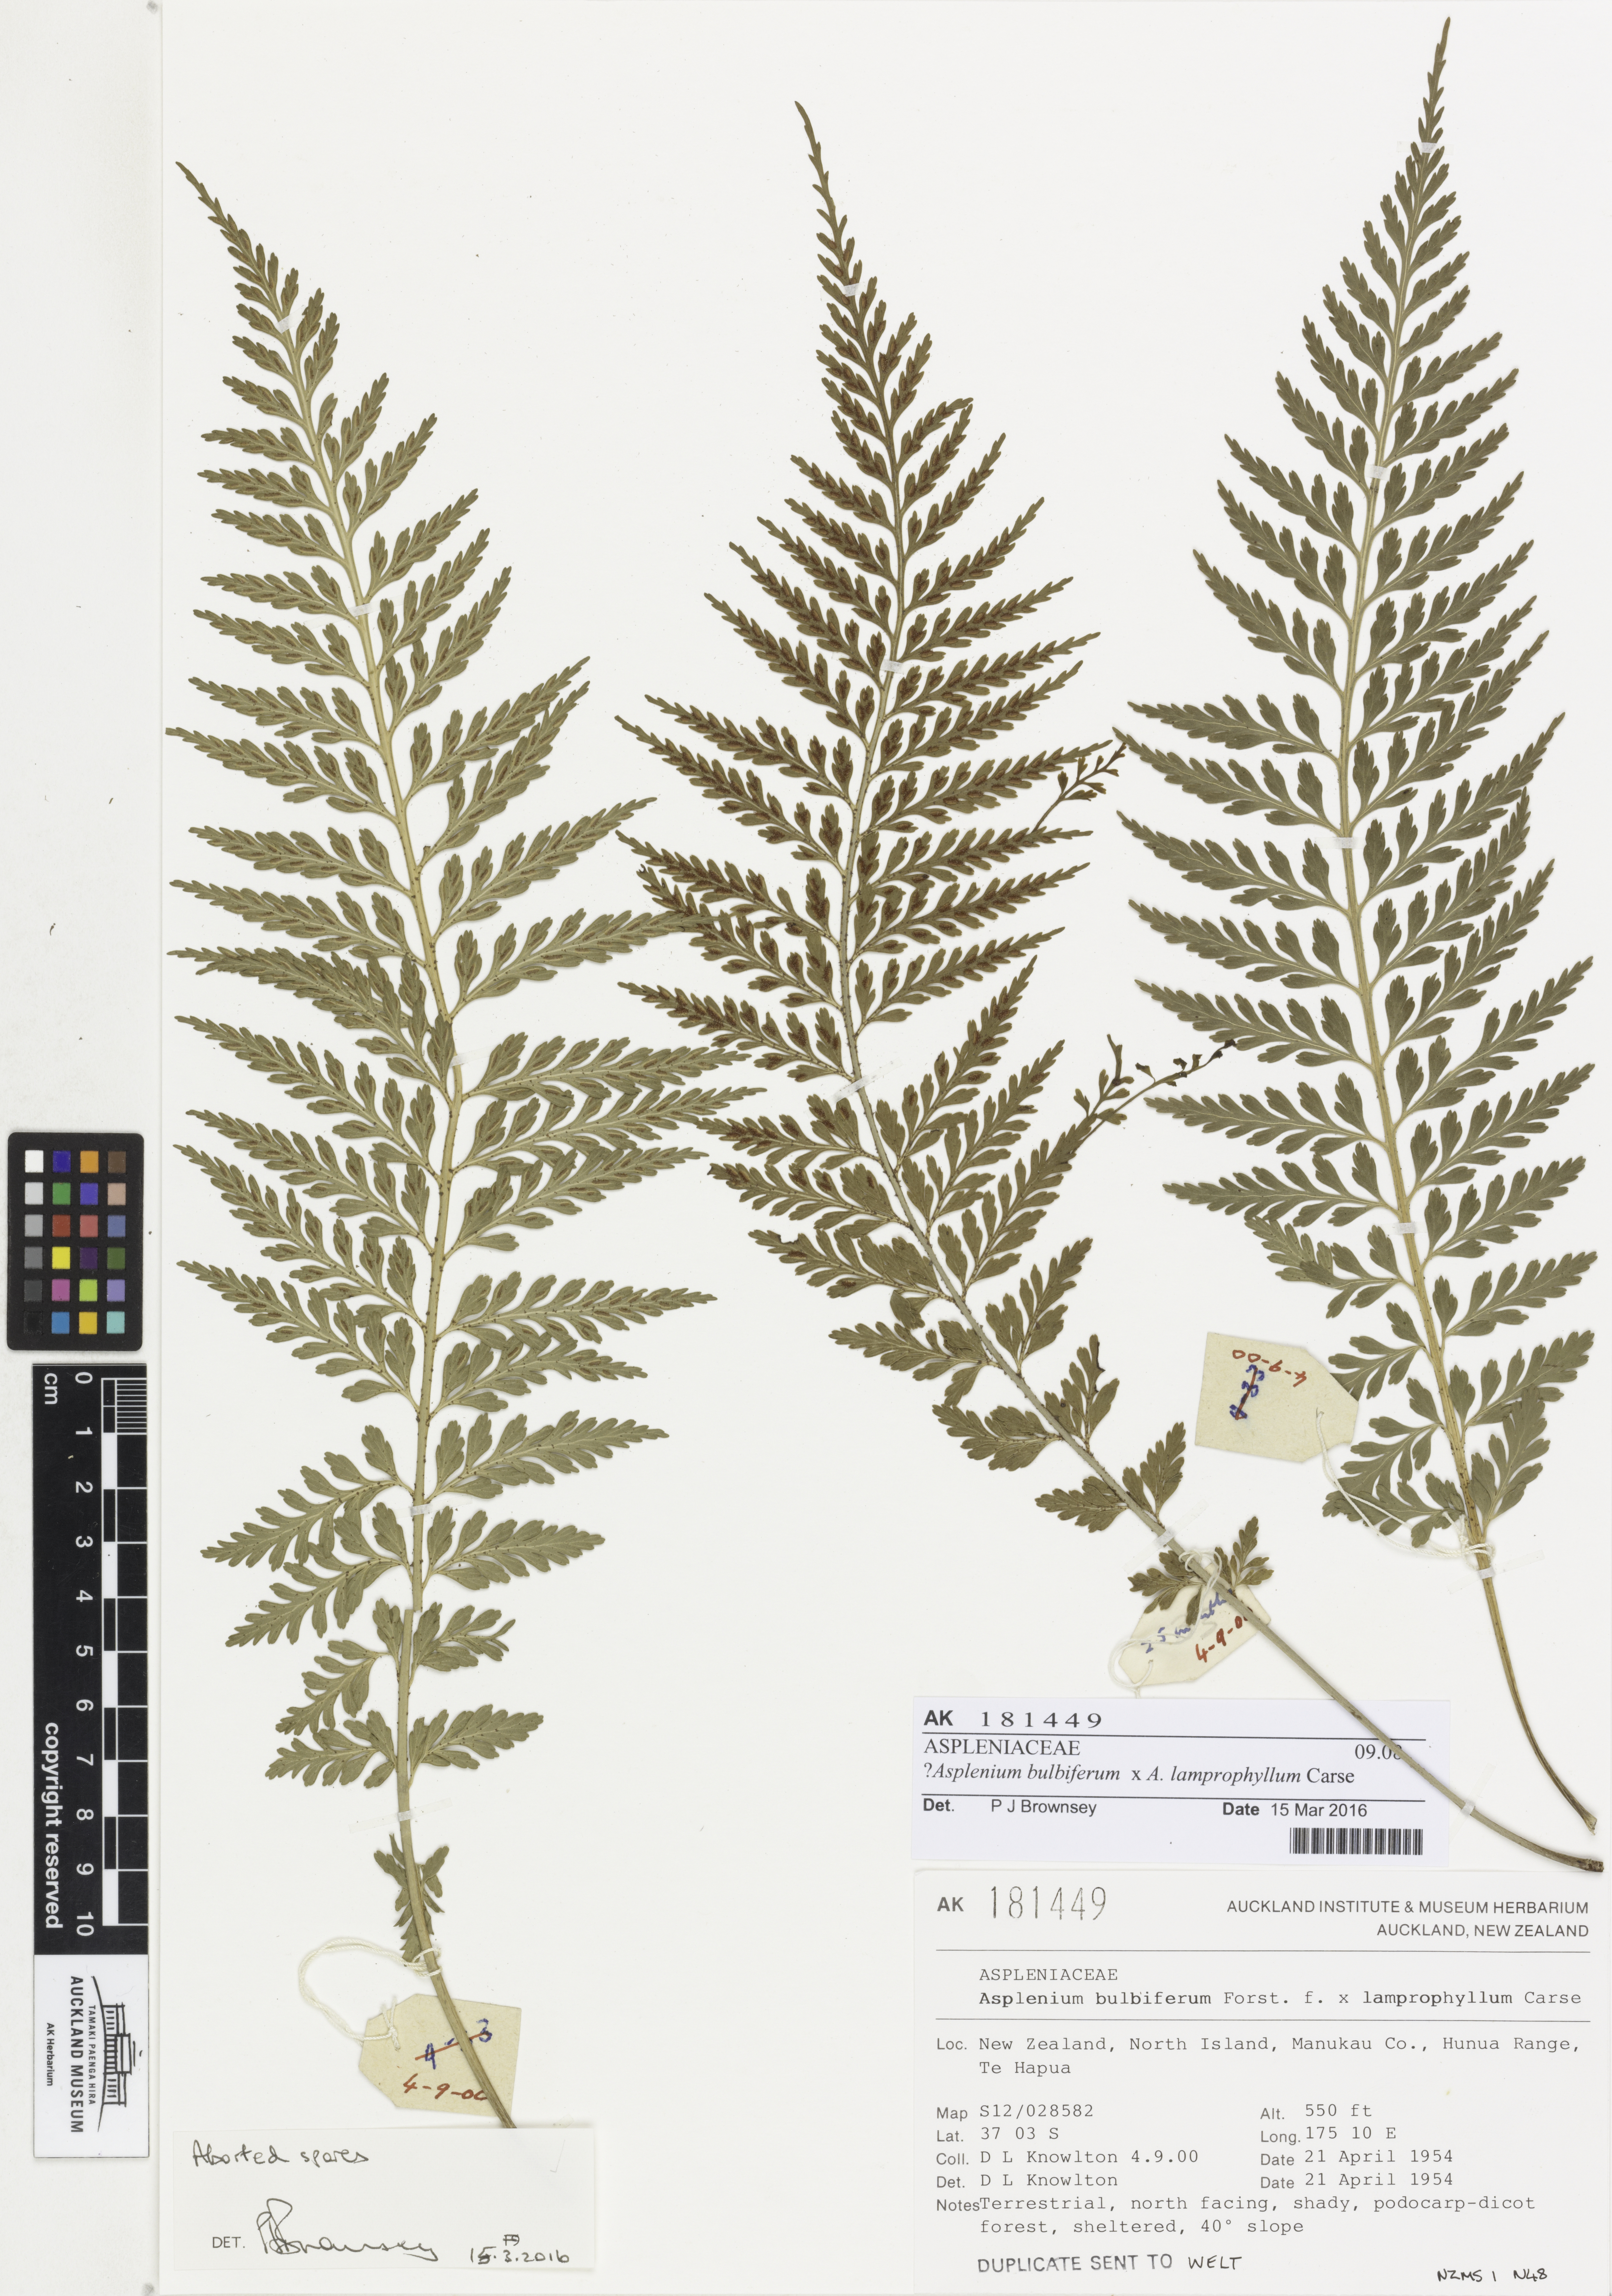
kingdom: Plantae
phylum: Tracheophyta
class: Polypodiopsida
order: Polypodiales
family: Aspleniaceae
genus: Asplenium
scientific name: Asplenium
